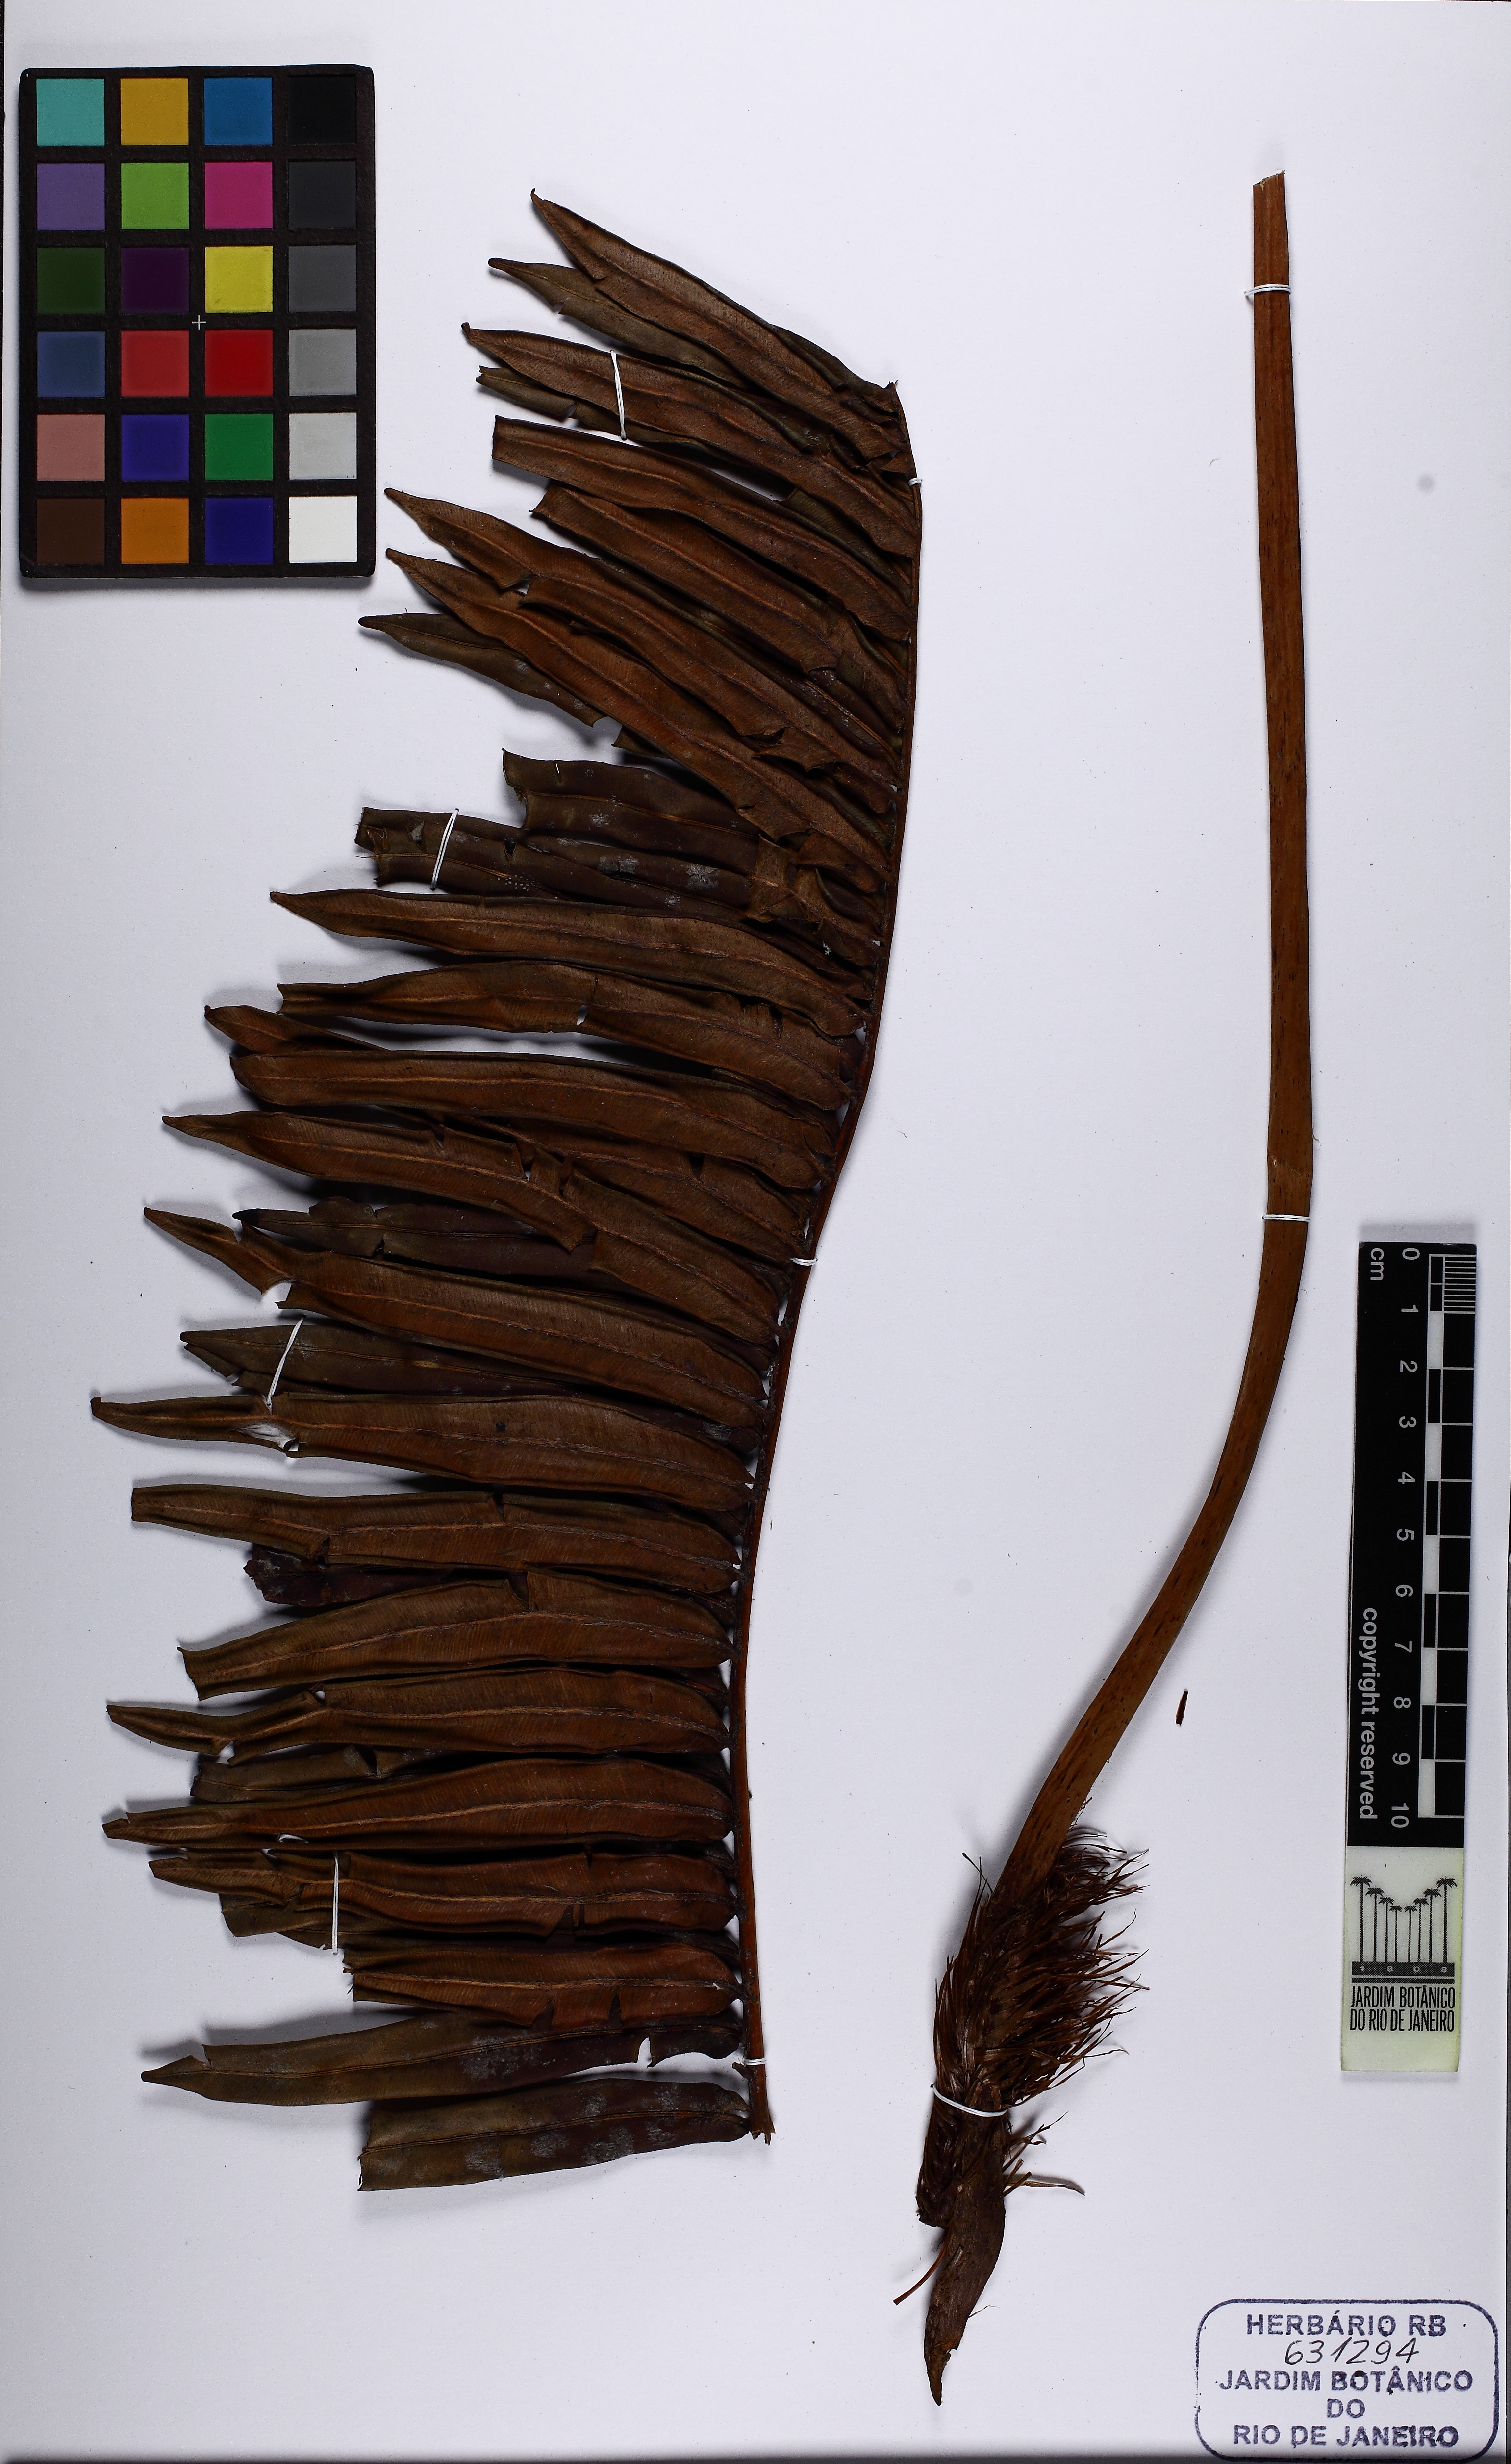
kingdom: Plantae
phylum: Tracheophyta
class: Polypodiopsida
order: Polypodiales
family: Blechnaceae
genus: Blechnum
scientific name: Blechnum
